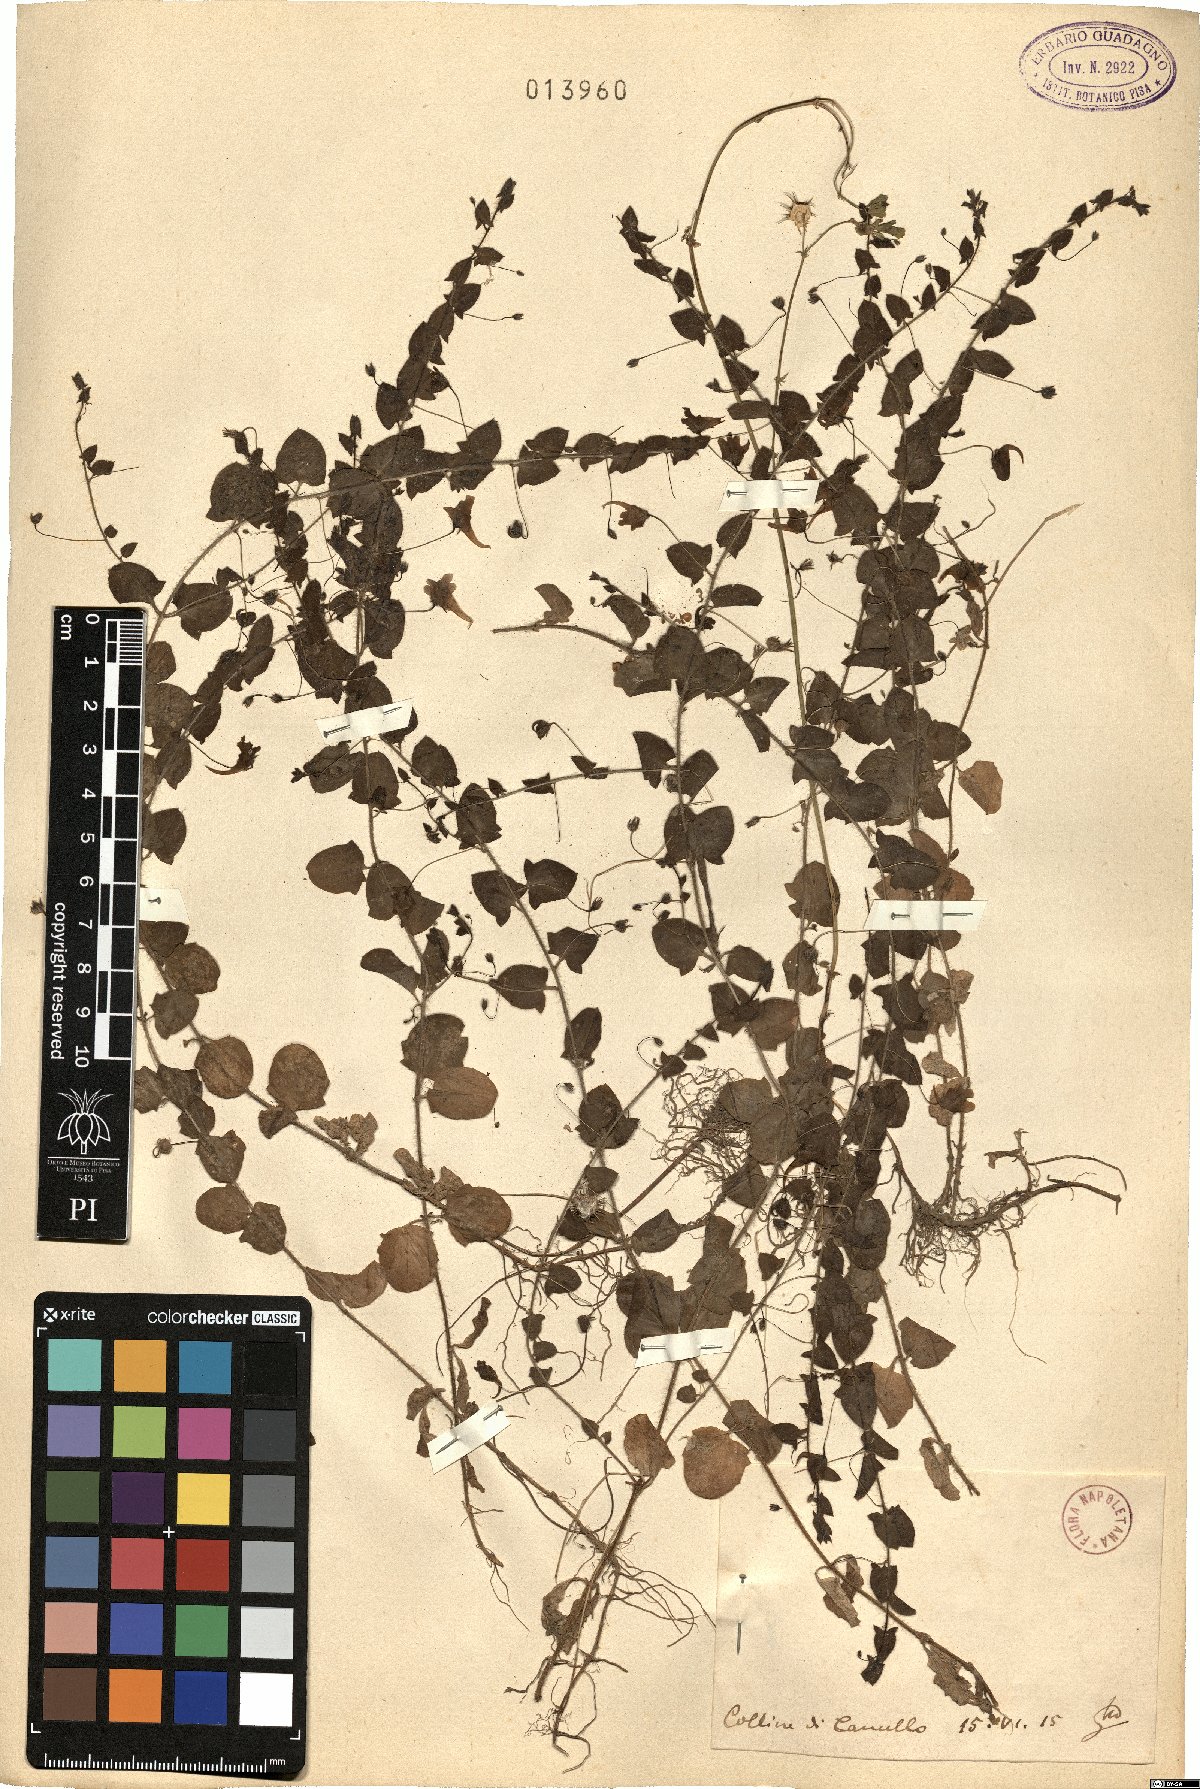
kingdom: Plantae
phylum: Tracheophyta
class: Magnoliopsida
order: Lamiales
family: Plantaginaceae
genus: Linaria
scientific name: Linaria
